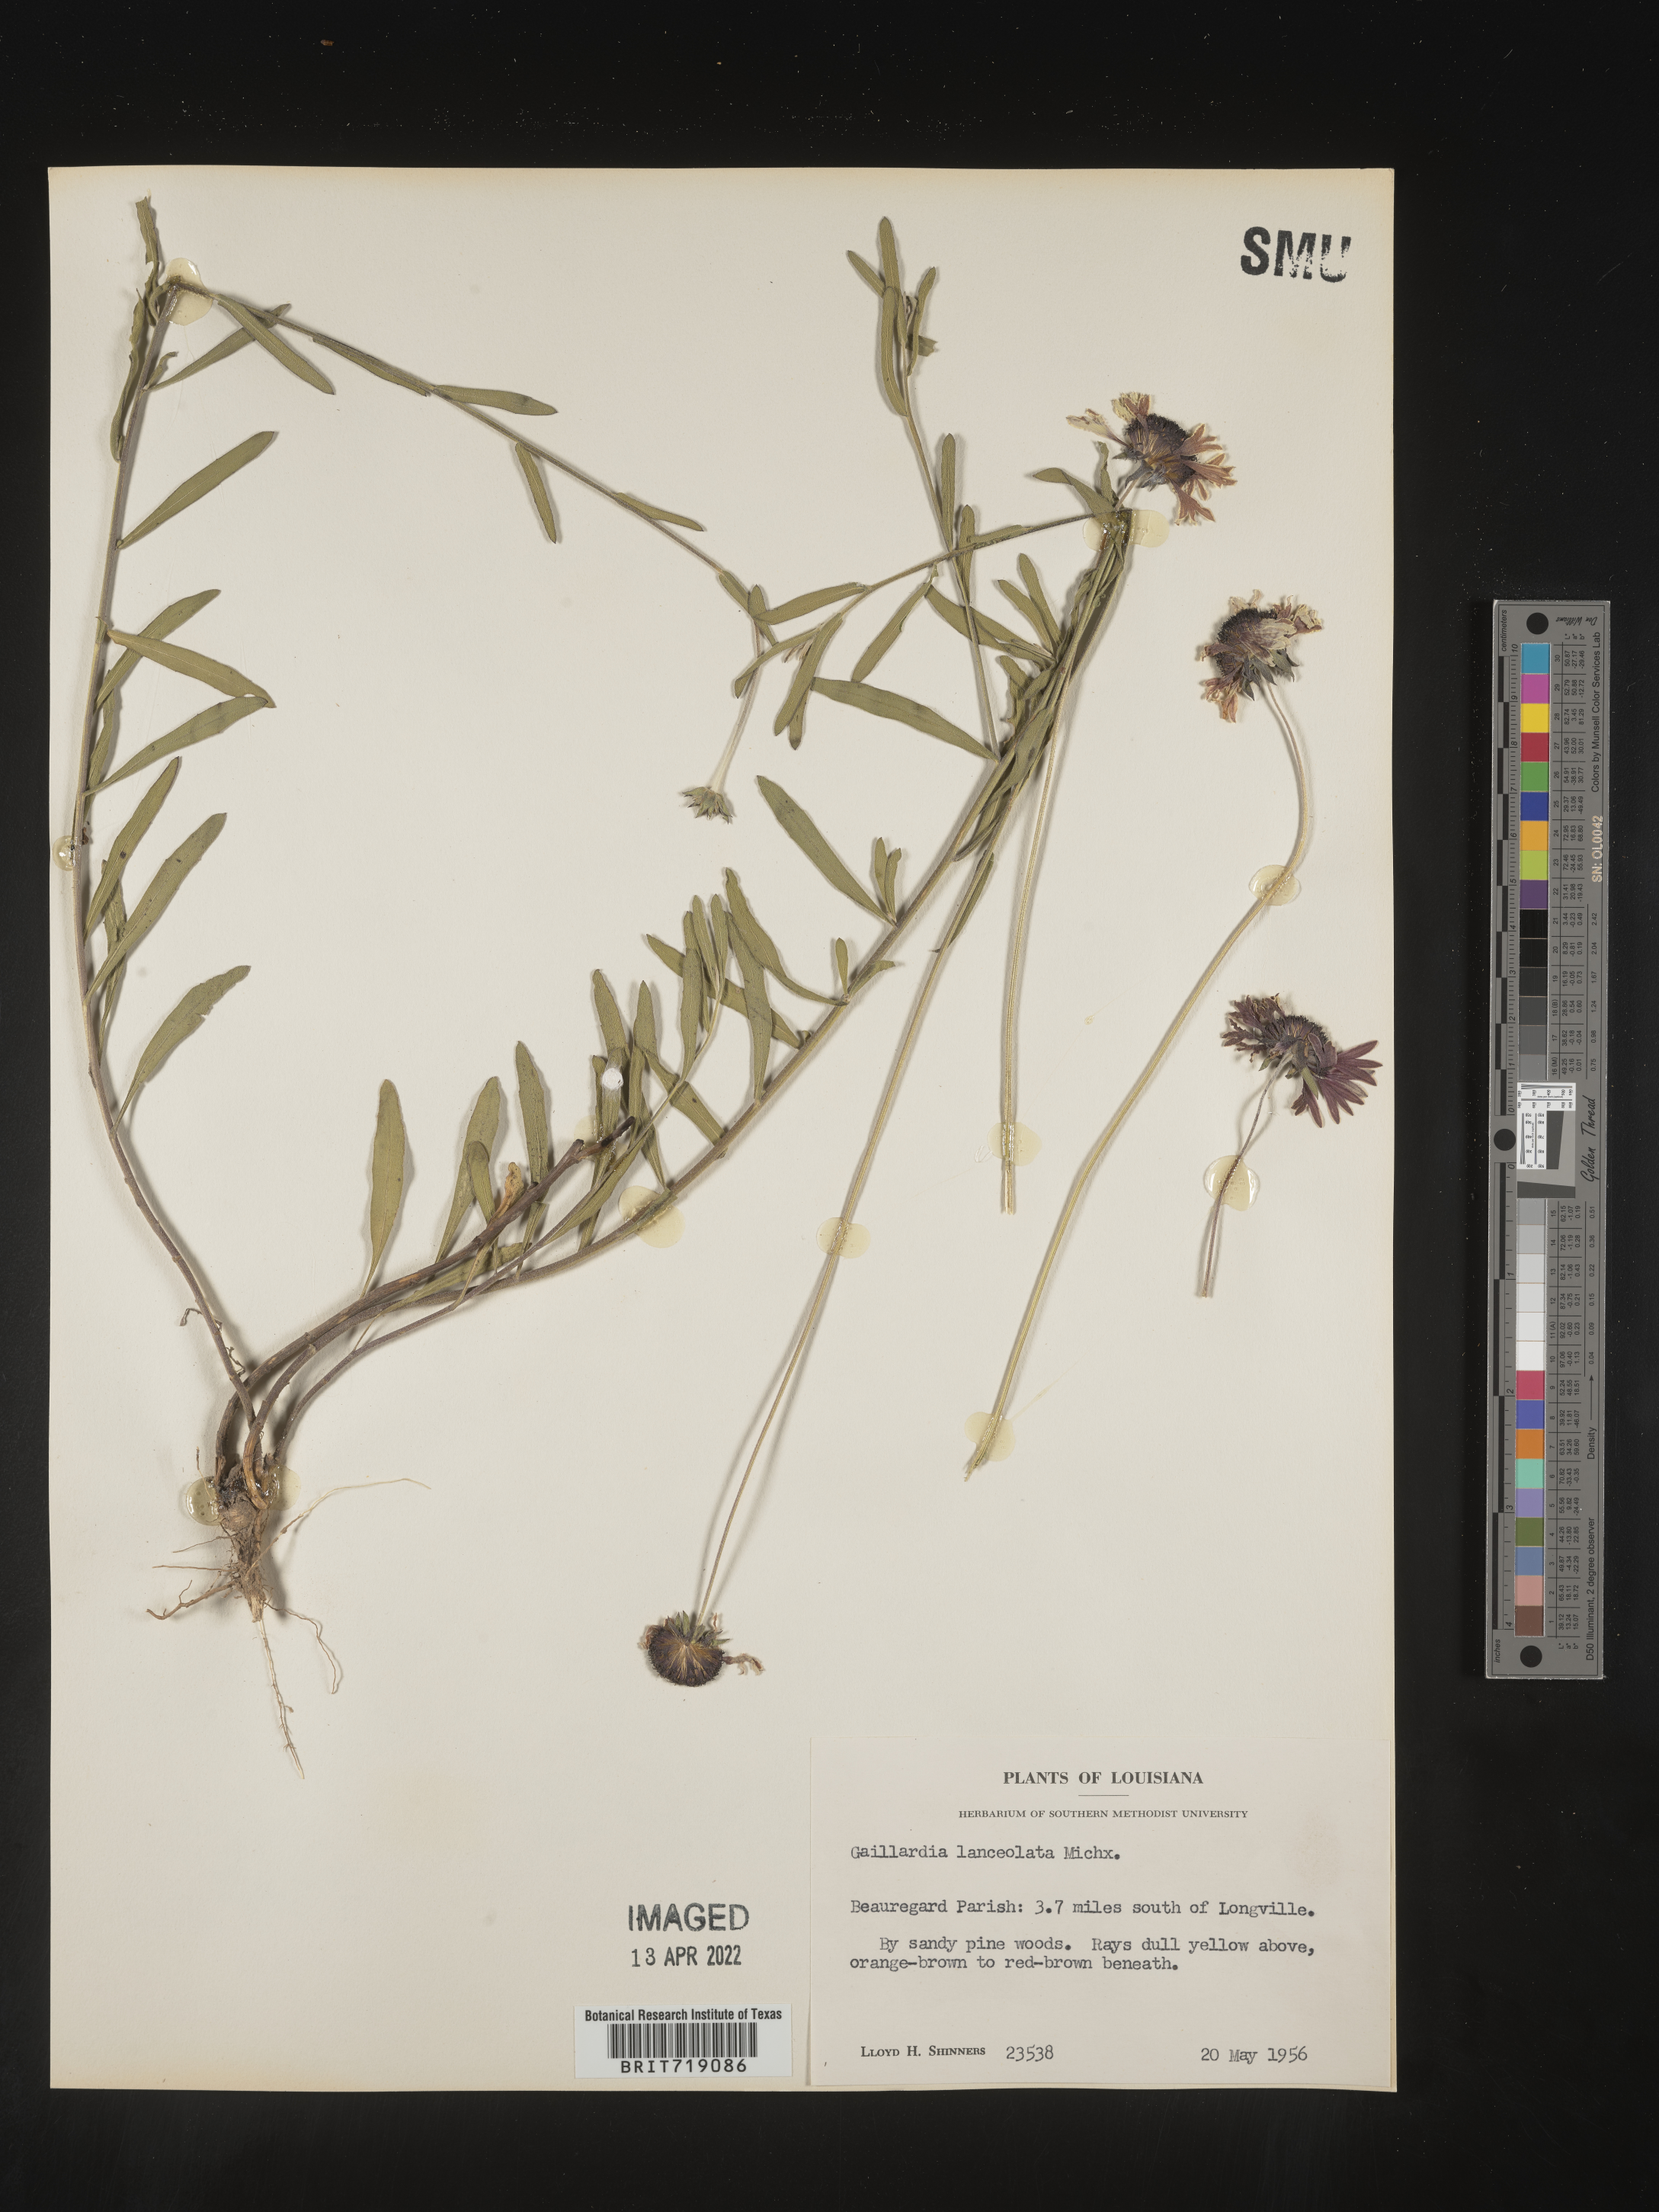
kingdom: Plantae
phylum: Tracheophyta
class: Magnoliopsida
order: Asterales
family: Asteraceae
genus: Gaillardia
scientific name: Gaillardia aestivalis
